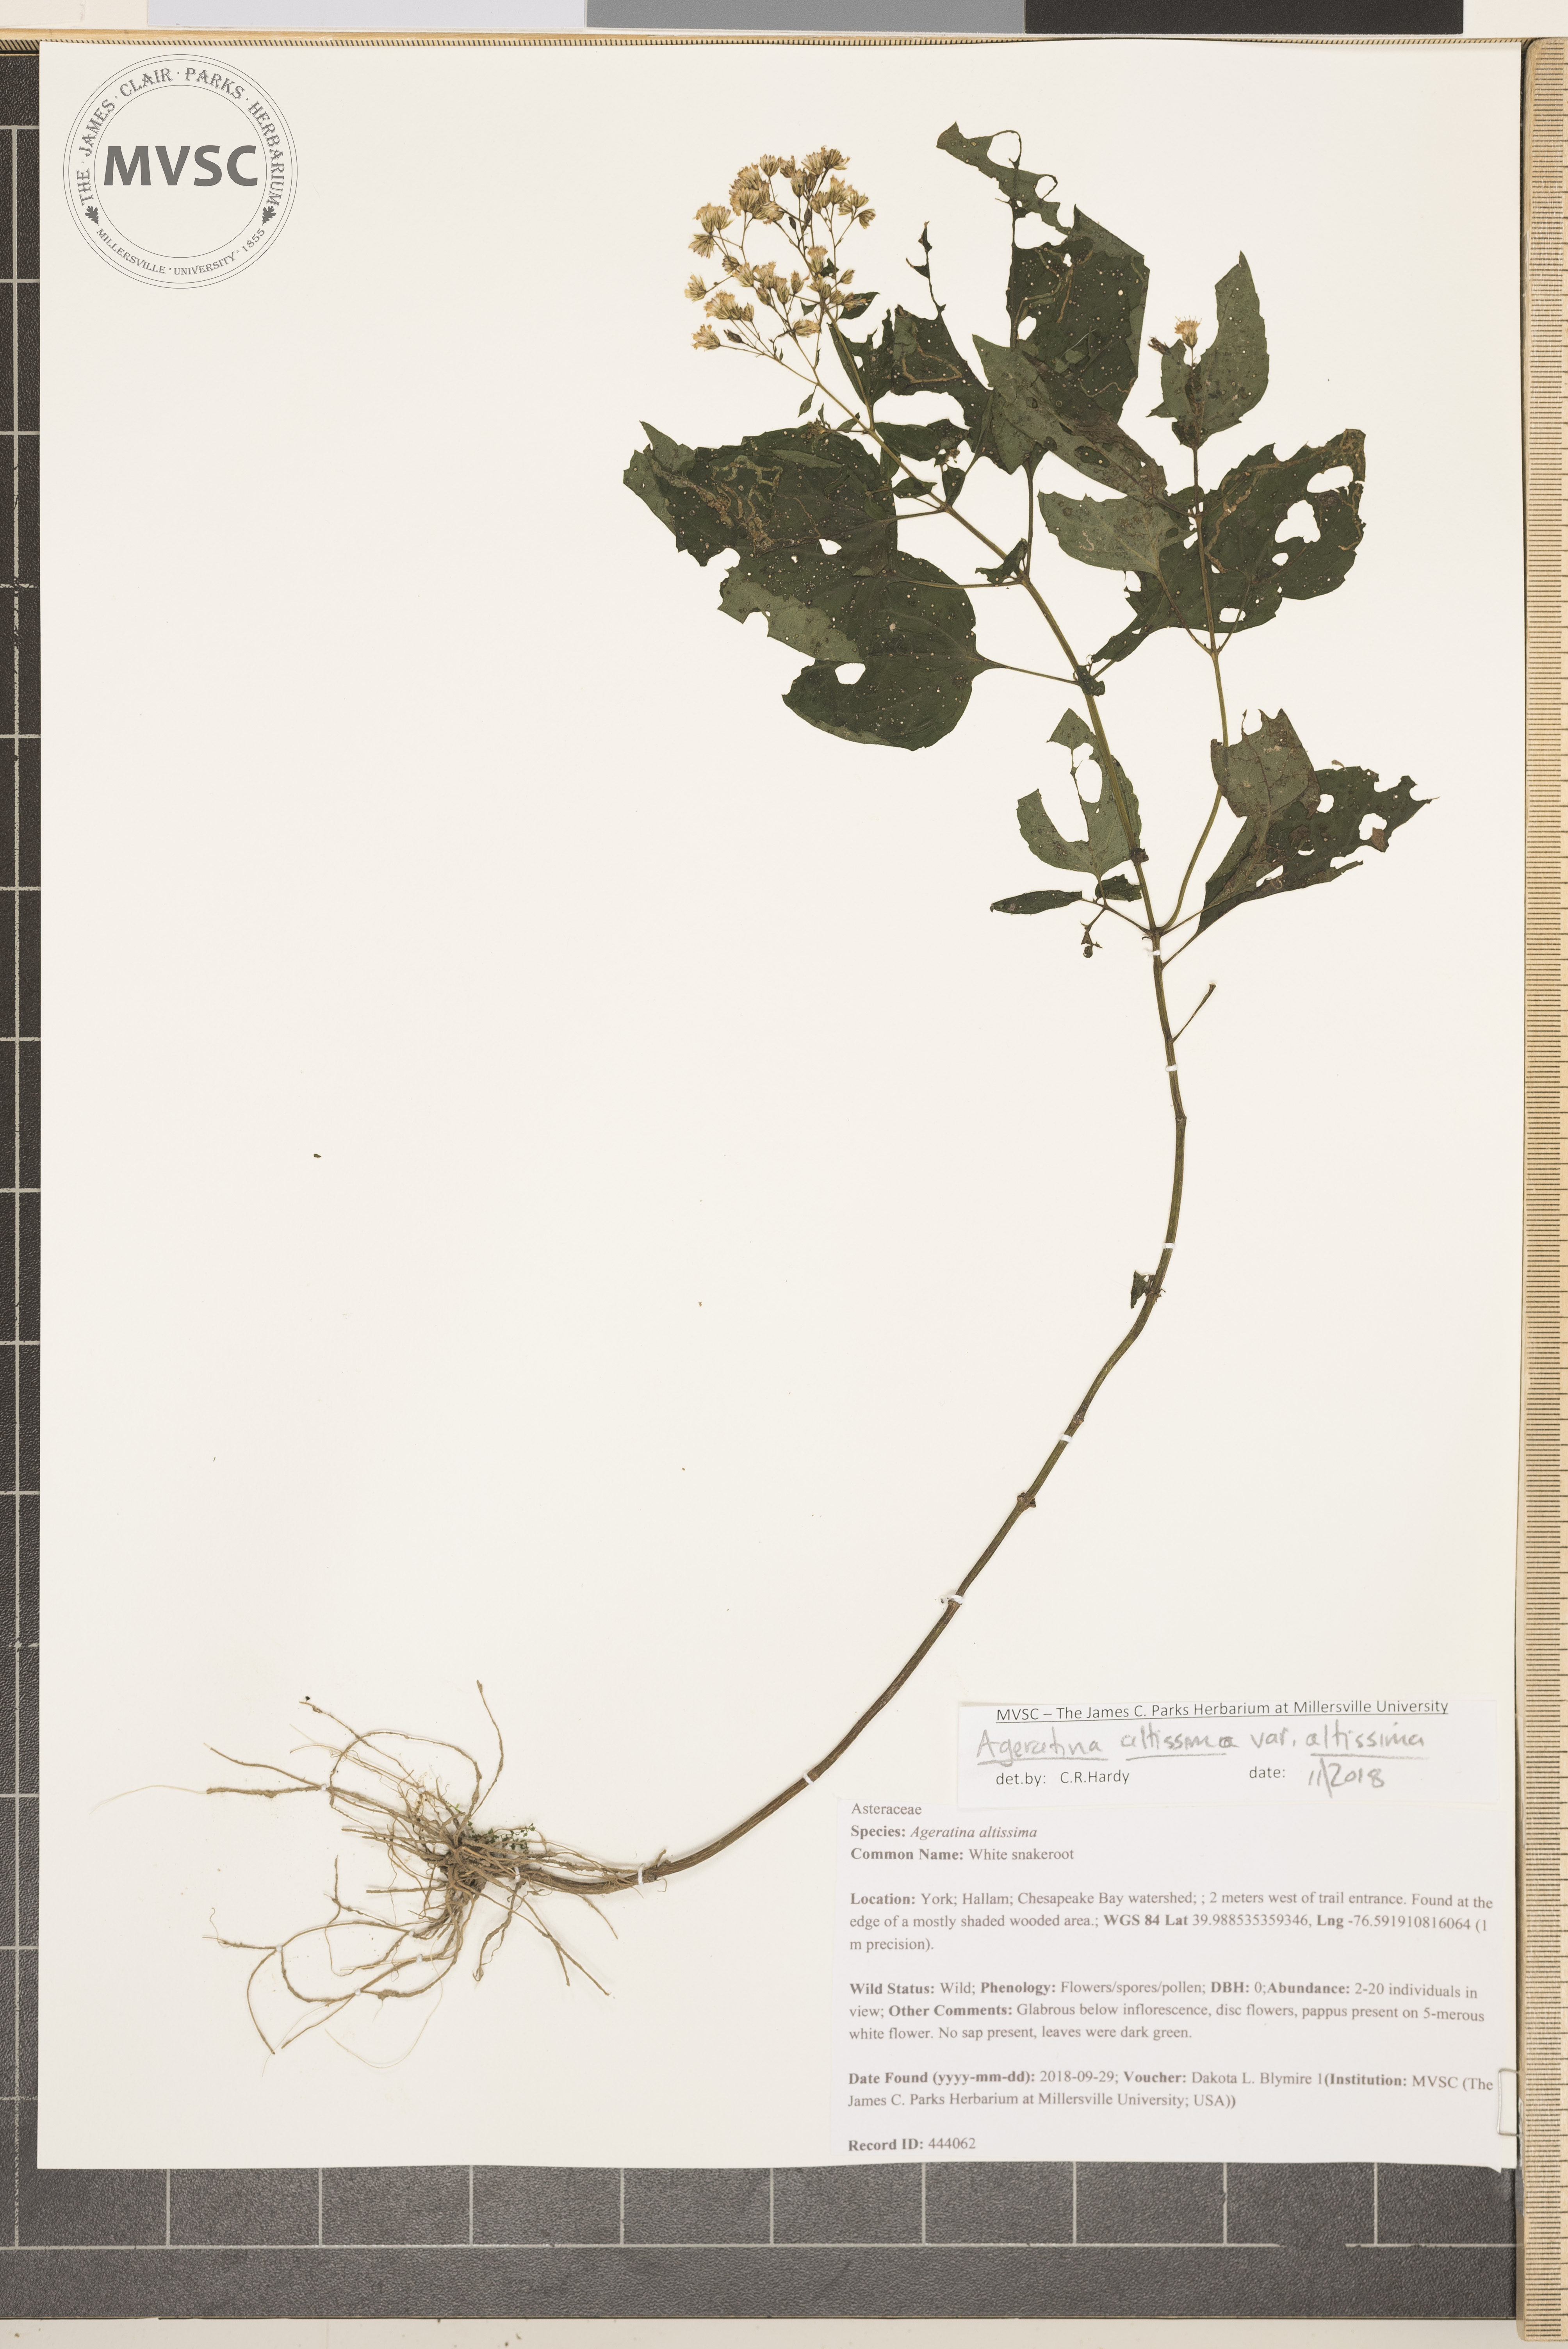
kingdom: Plantae
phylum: Tracheophyta
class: Magnoliopsida
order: Asterales
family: Asteraceae
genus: Ageratina
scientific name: Ageratina altissima
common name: White snakeroot
